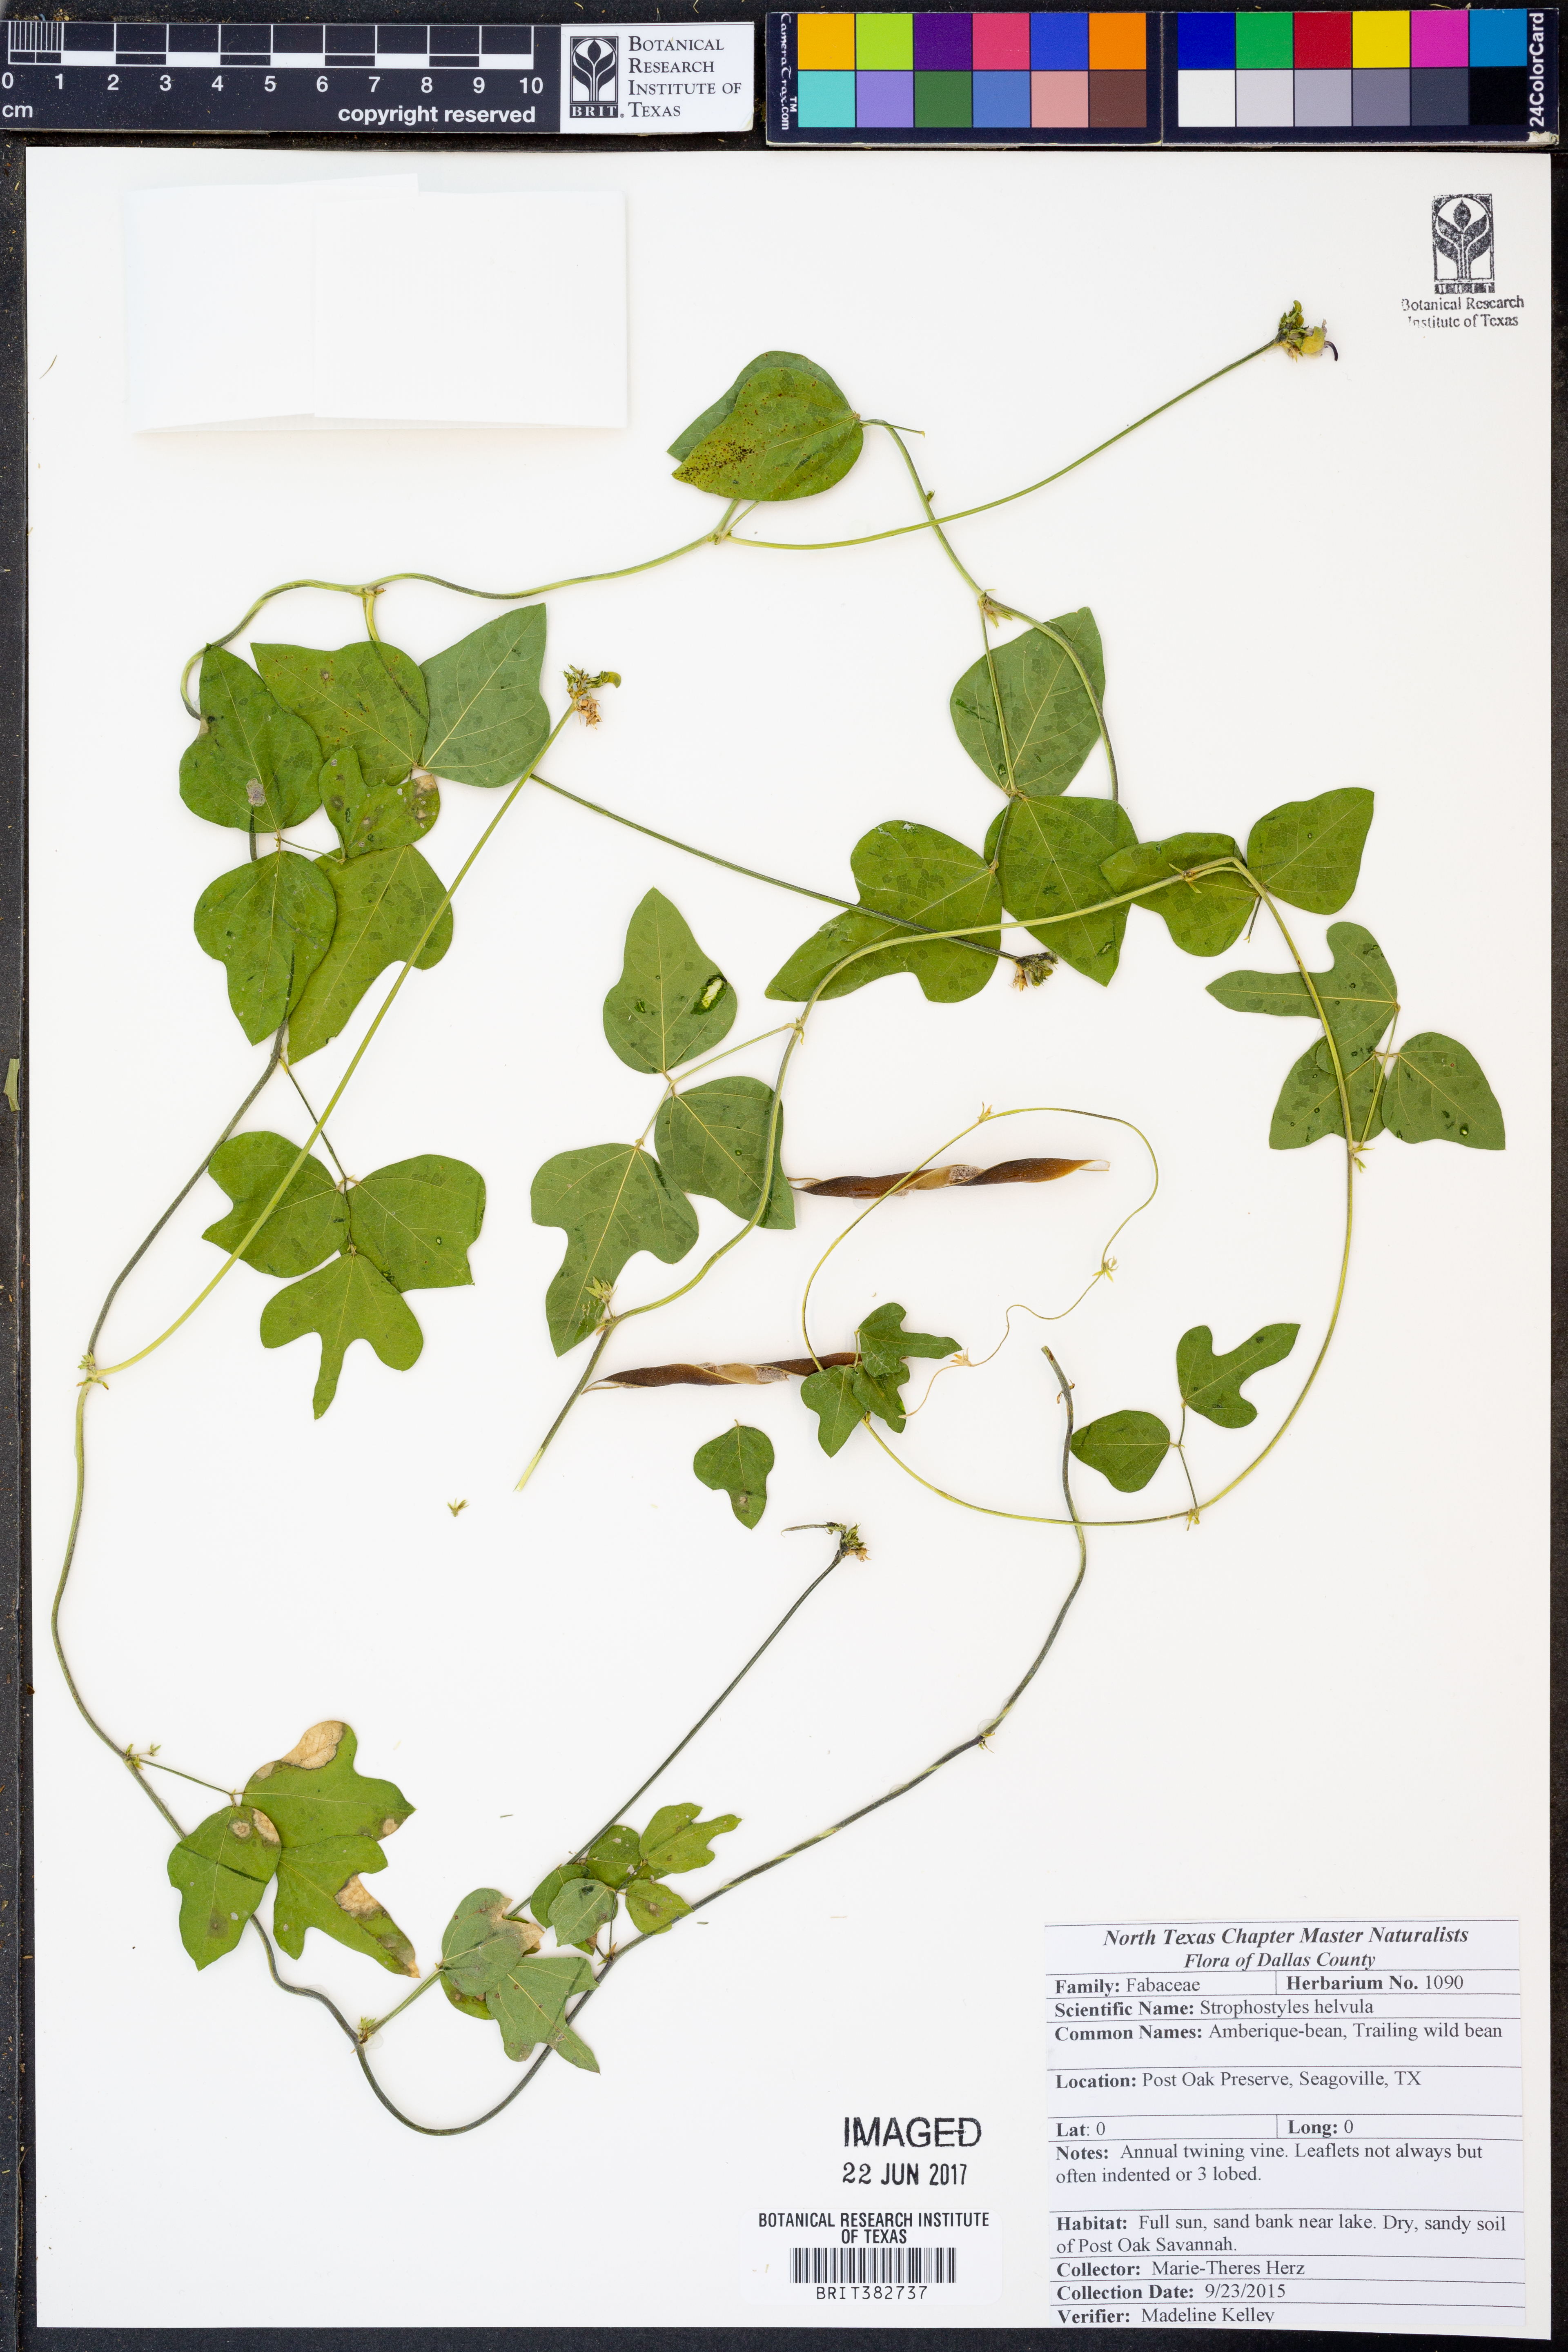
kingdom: Plantae
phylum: Tracheophyta
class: Magnoliopsida
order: Fabales
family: Fabaceae
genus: Strophostyles
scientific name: Strophostyles helvula
